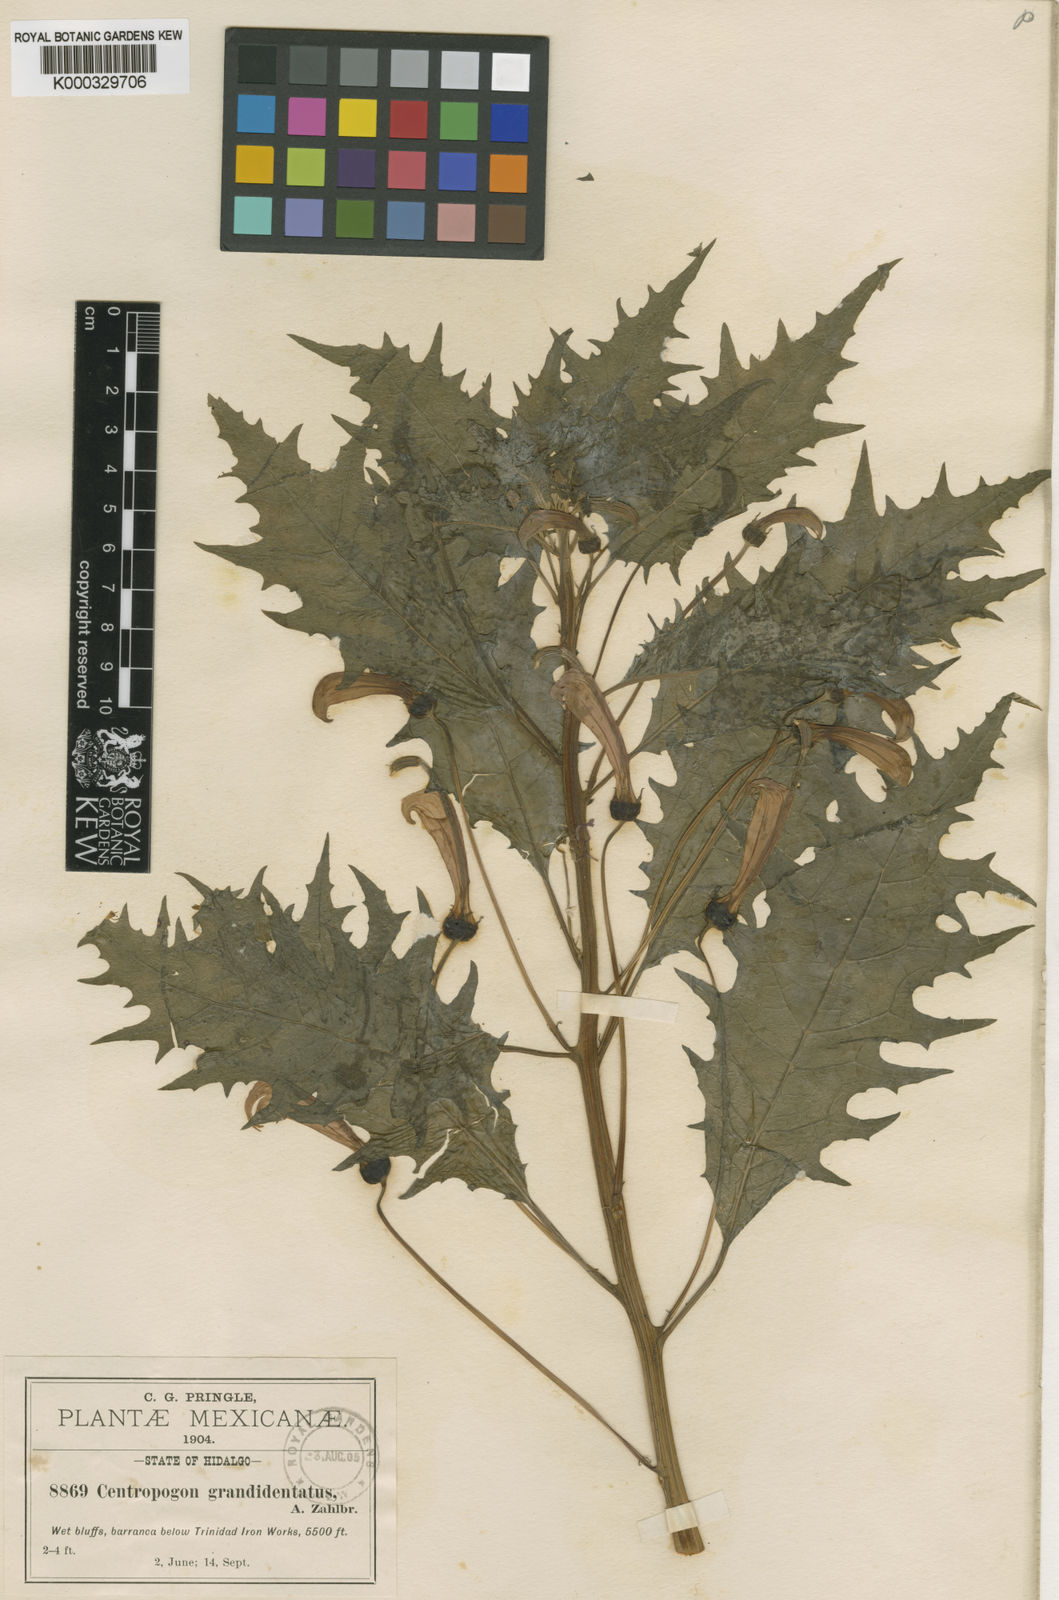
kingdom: Plantae
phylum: Tracheophyta
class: Magnoliopsida
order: Asterales
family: Campanulaceae
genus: Centropogon
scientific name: Centropogon grandidentatus
